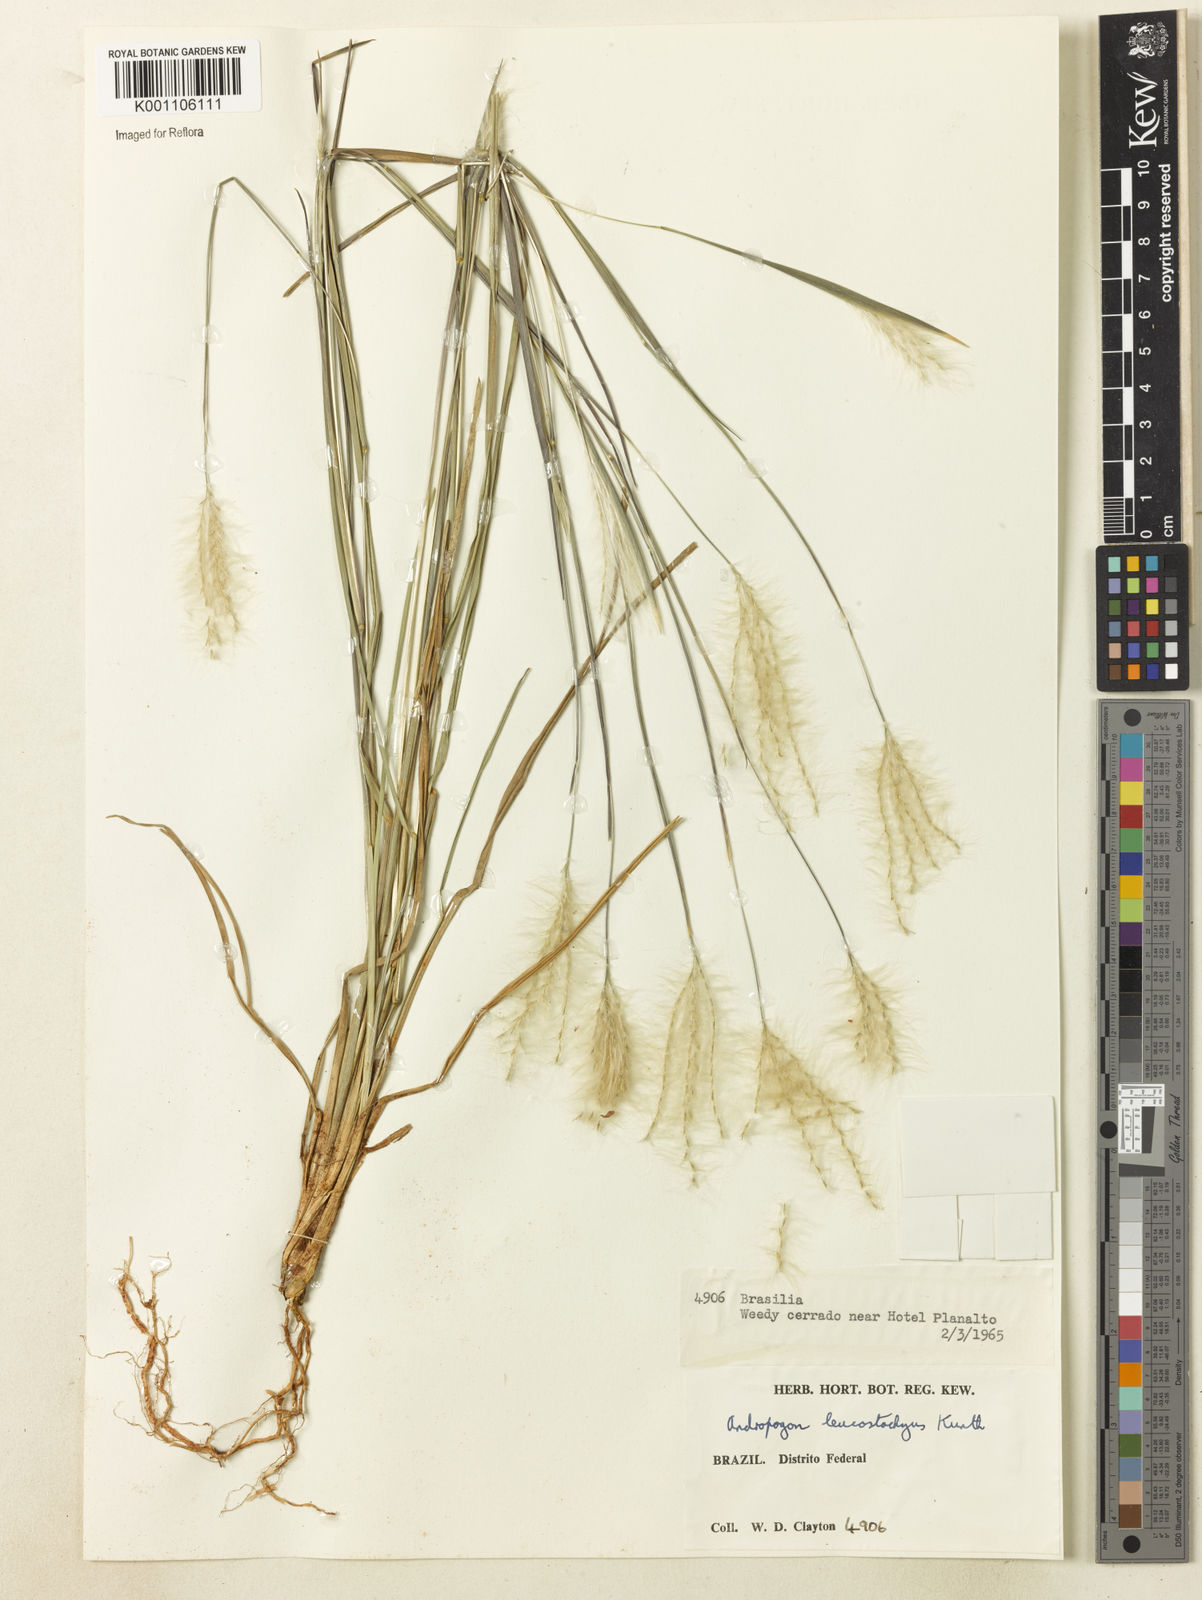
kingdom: Plantae
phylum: Tracheophyta
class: Liliopsida
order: Poales
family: Poaceae
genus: Andropogon
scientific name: Andropogon leucostachyus
